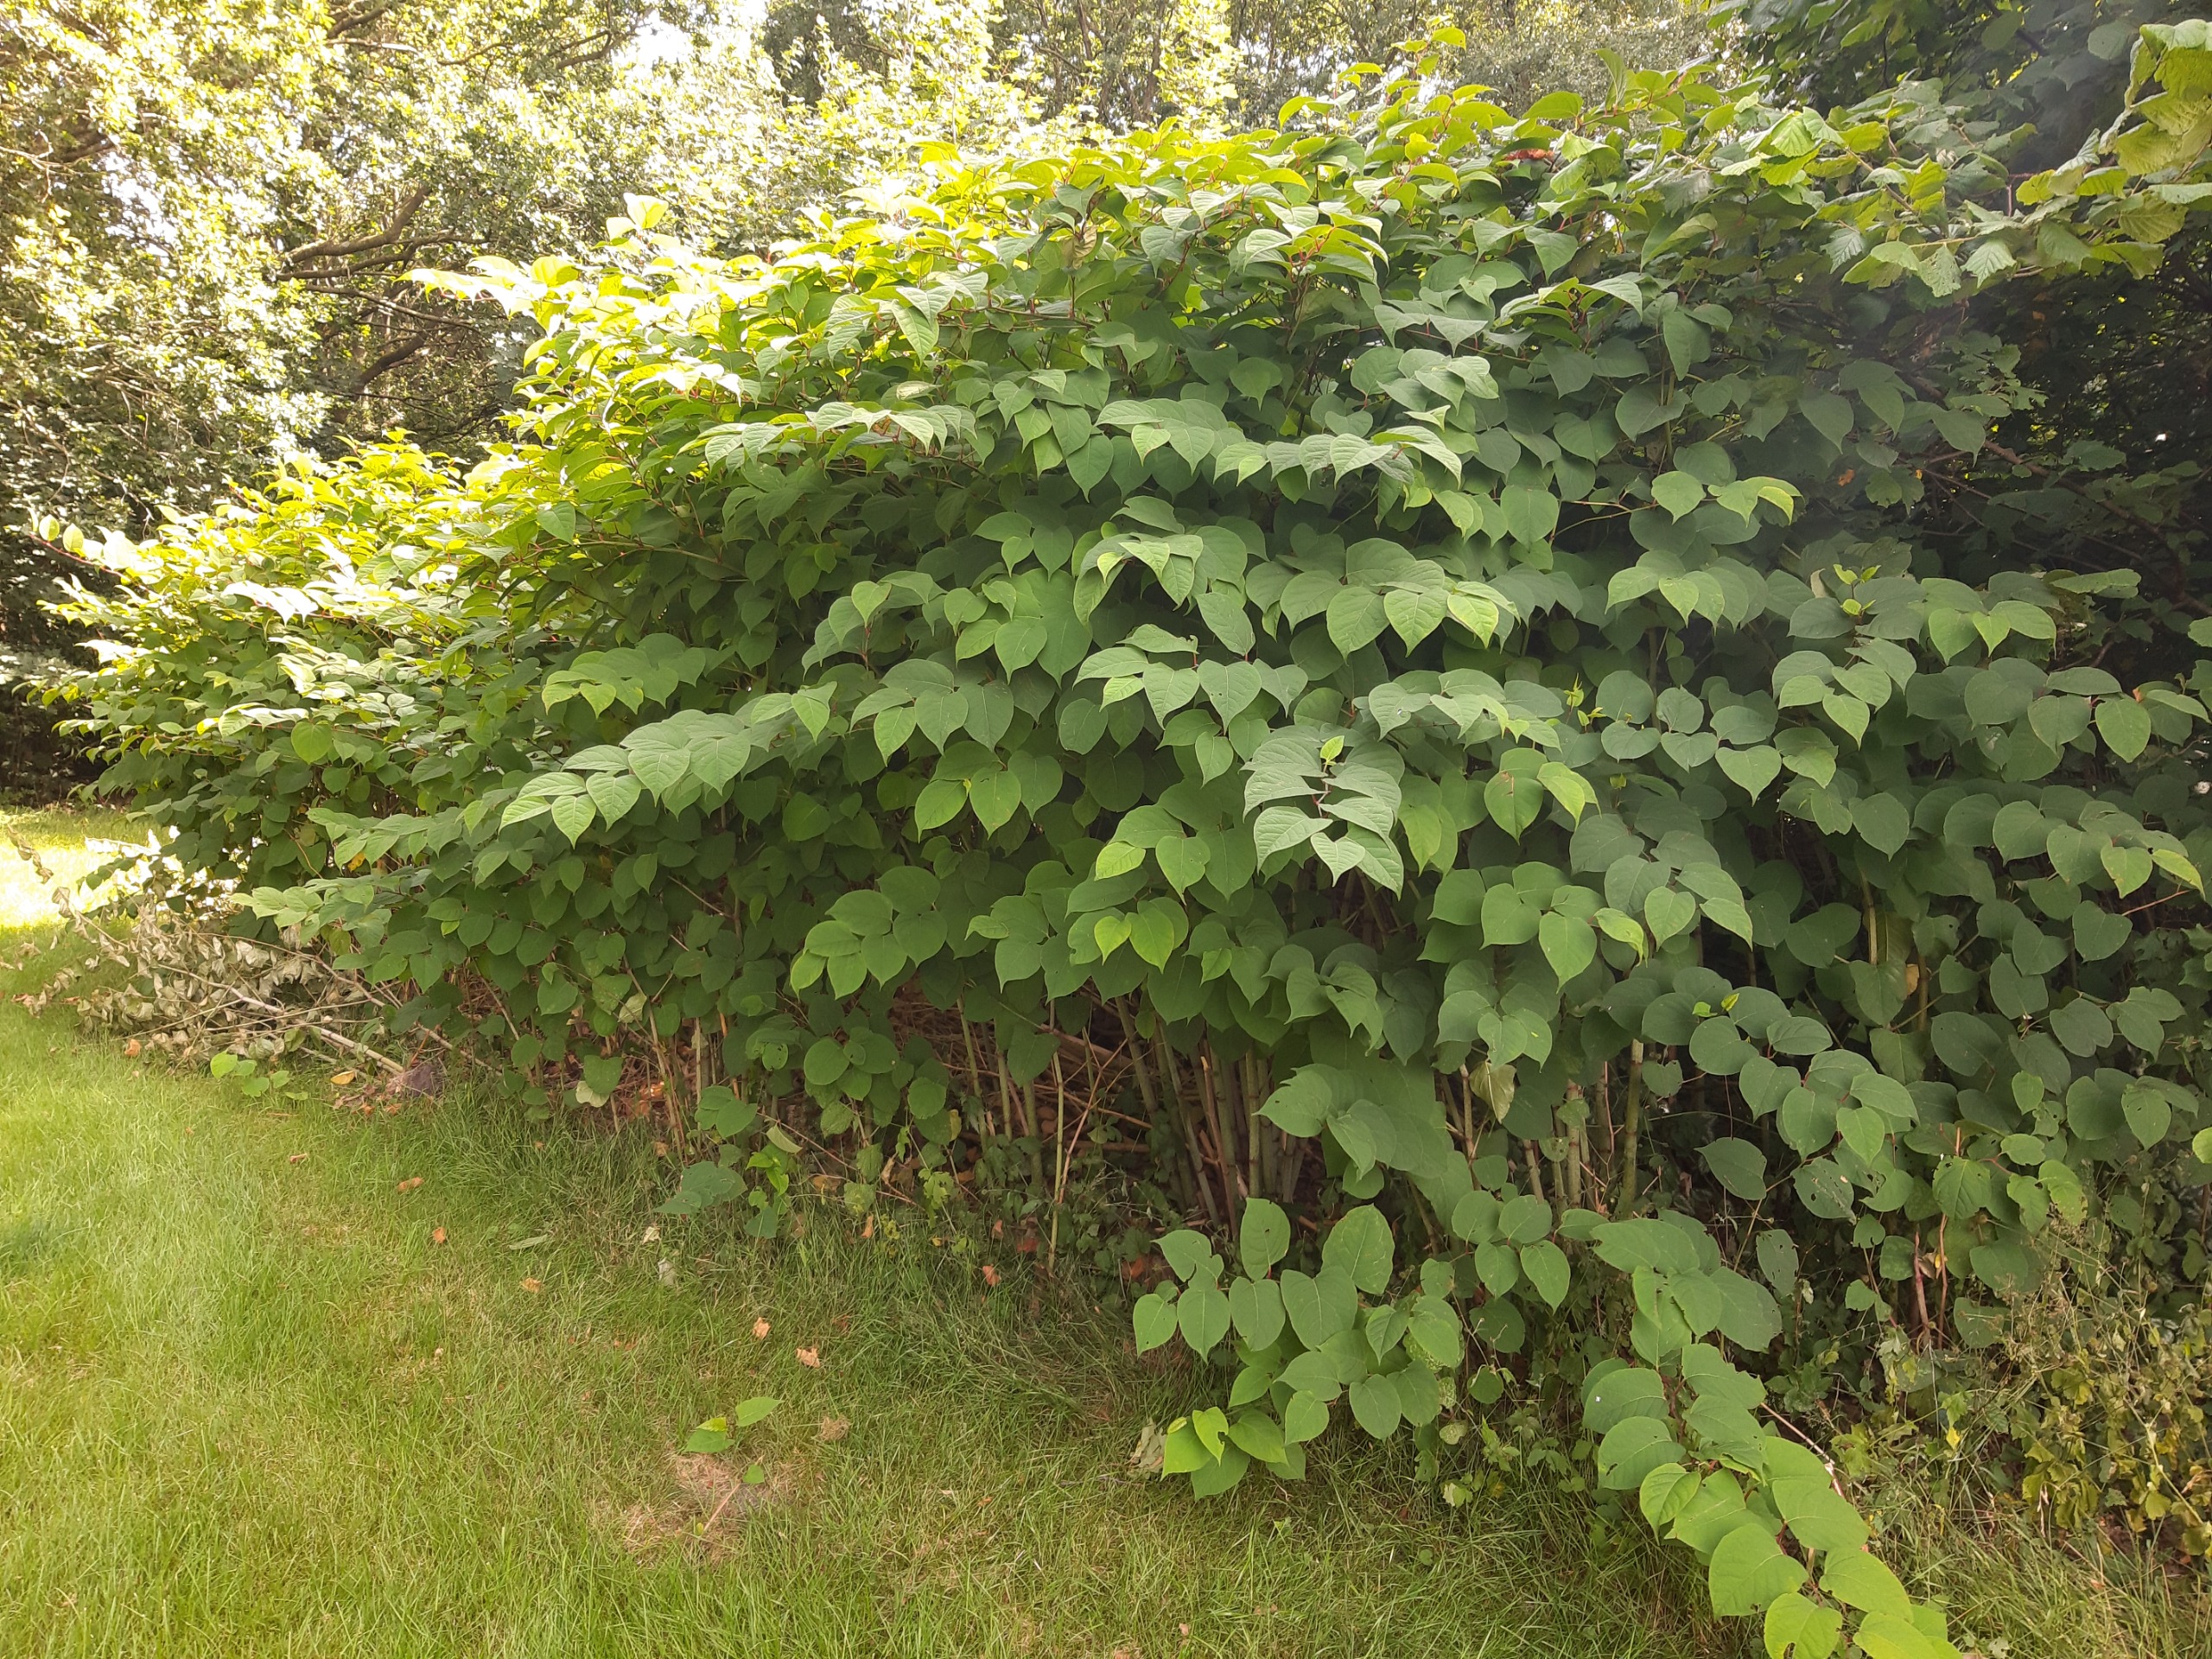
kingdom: Plantae
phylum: Tracheophyta
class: Magnoliopsida
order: Caryophyllales
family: Polygonaceae
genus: Reynoutria
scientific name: Reynoutria japonica
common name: Japan-pileurt
